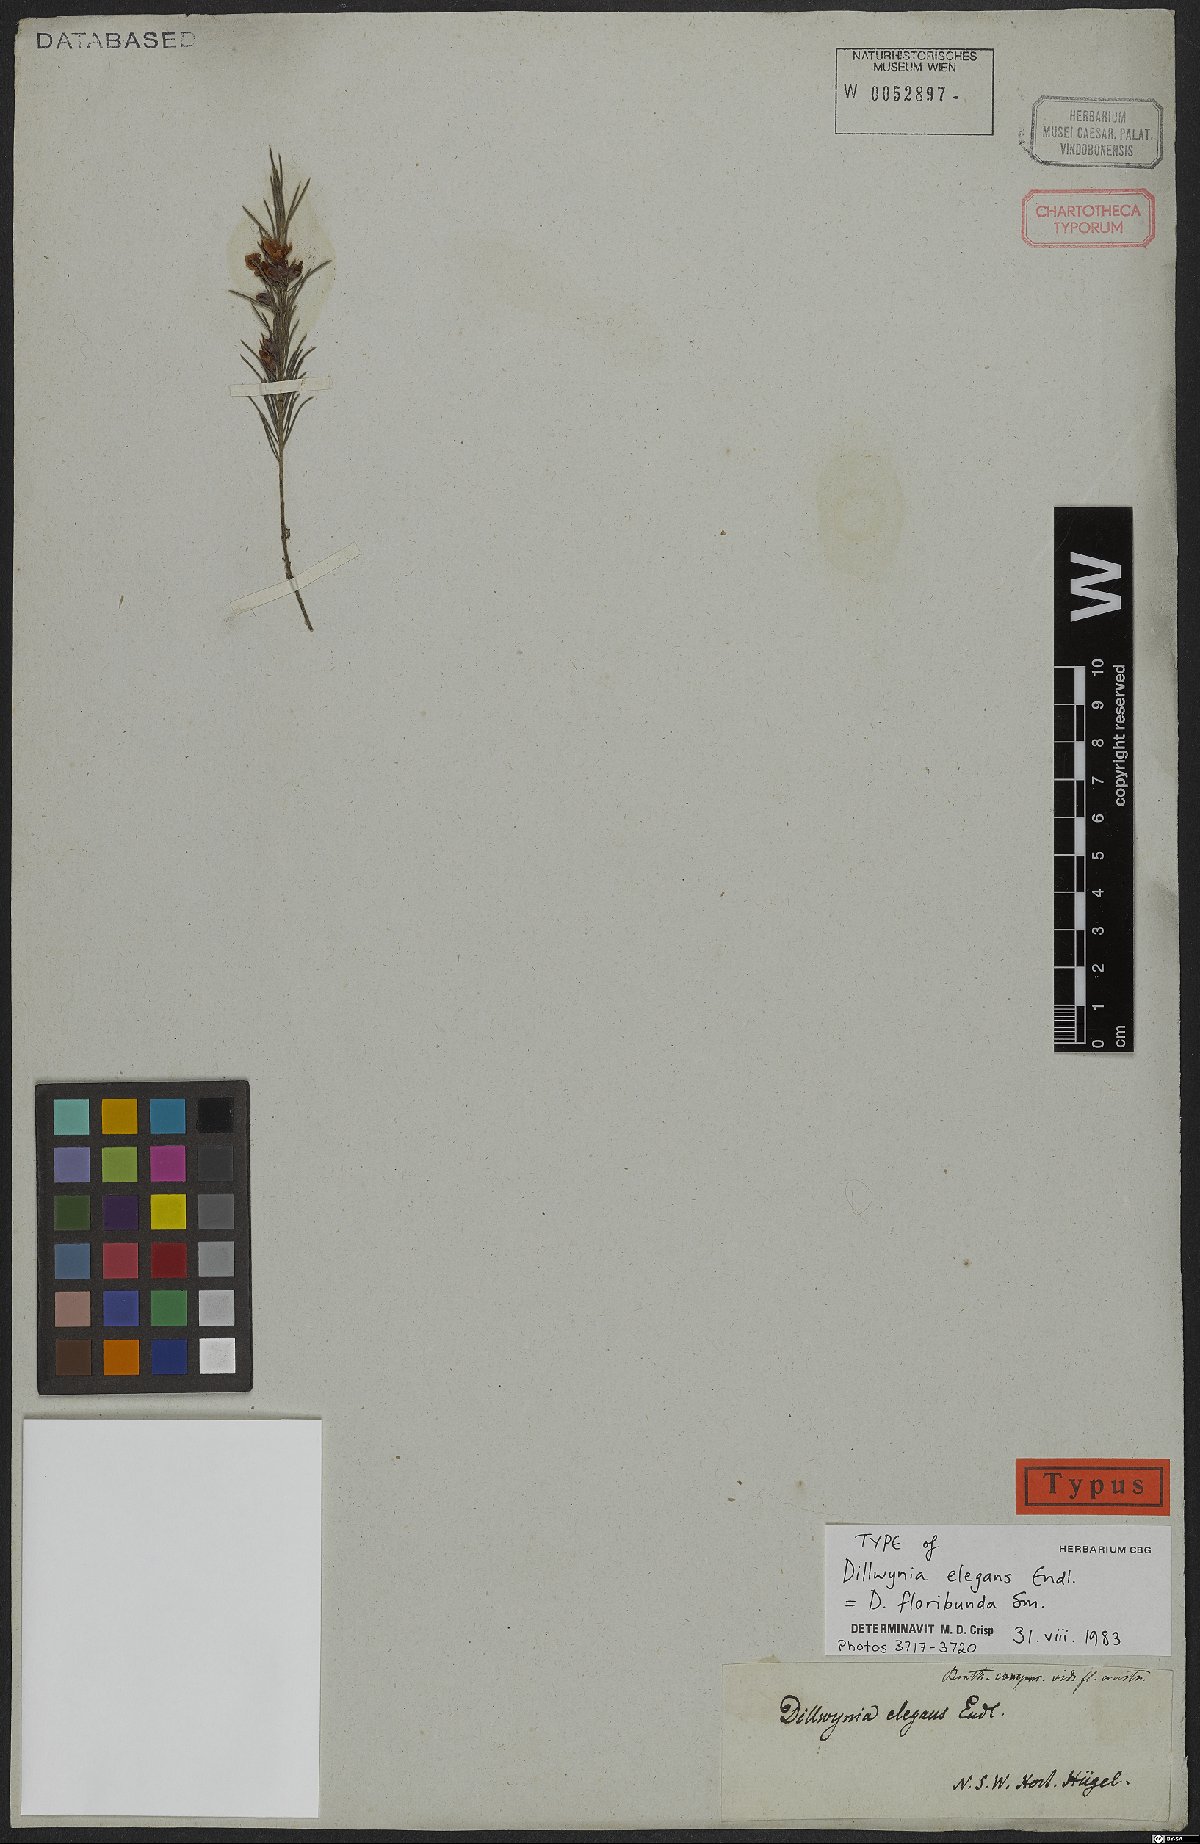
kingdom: Plantae
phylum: Tracheophyta
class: Magnoliopsida
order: Fabales
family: Fabaceae
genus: Dillwynia
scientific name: Dillwynia floribunda
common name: Eggs-and-bacon
